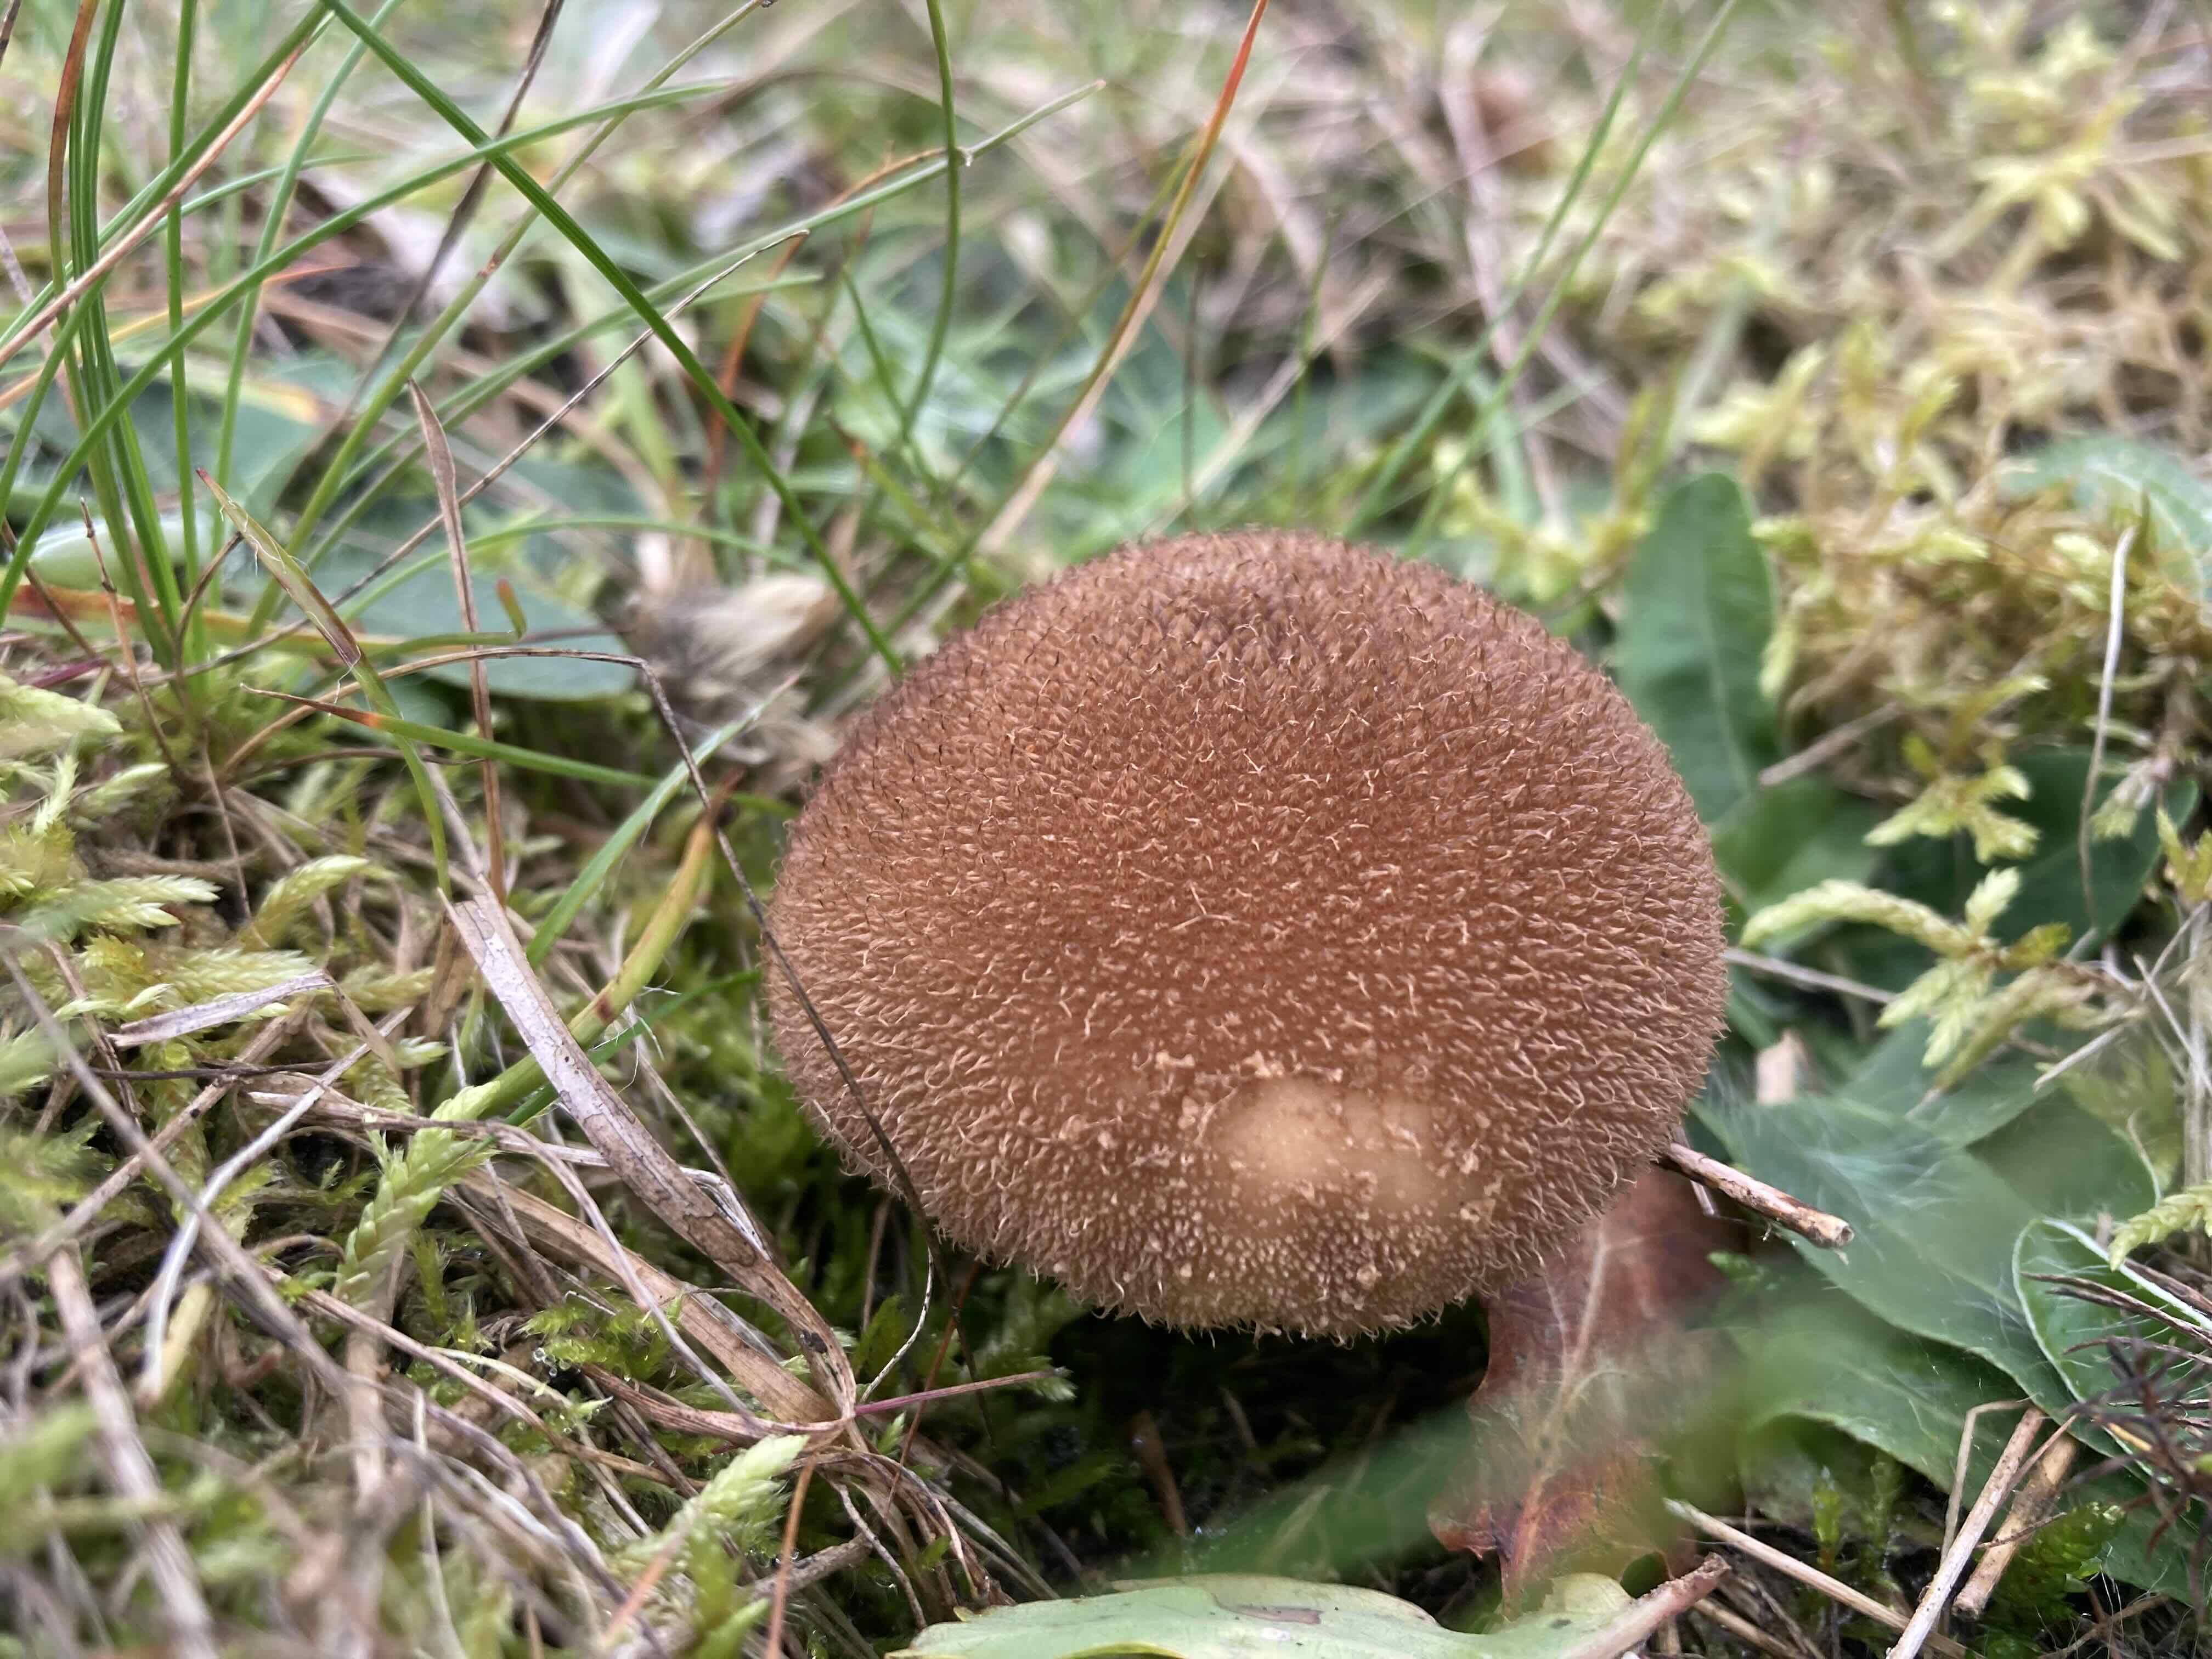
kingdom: Fungi
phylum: Basidiomycota
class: Agaricomycetes
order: Agaricales
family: Lycoperdaceae
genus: Lycoperdon
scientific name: Lycoperdon nigrescens
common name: sortagtig støvbold
